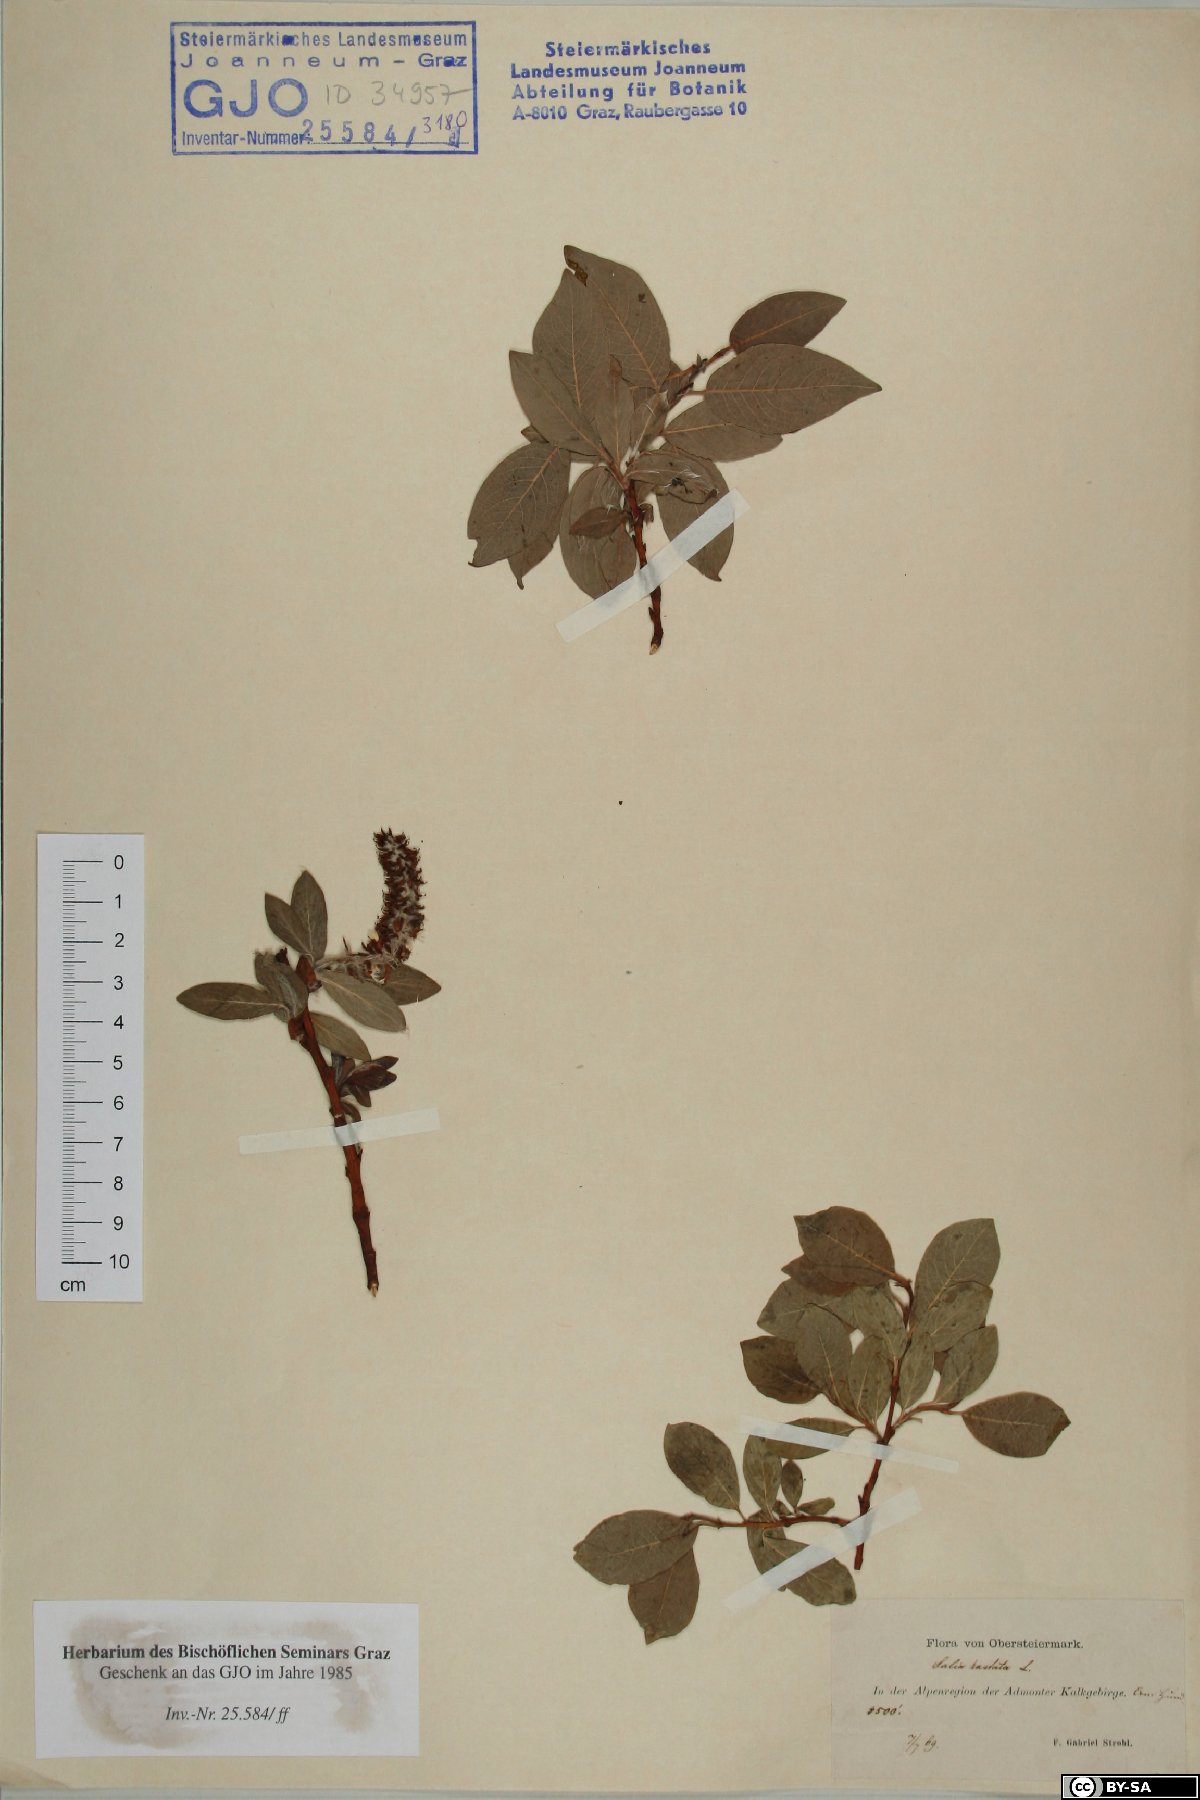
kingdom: Plantae
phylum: Tracheophyta
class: Magnoliopsida
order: Malpighiales
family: Salicaceae
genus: Salix
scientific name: Salix hastata
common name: Halberd willow
